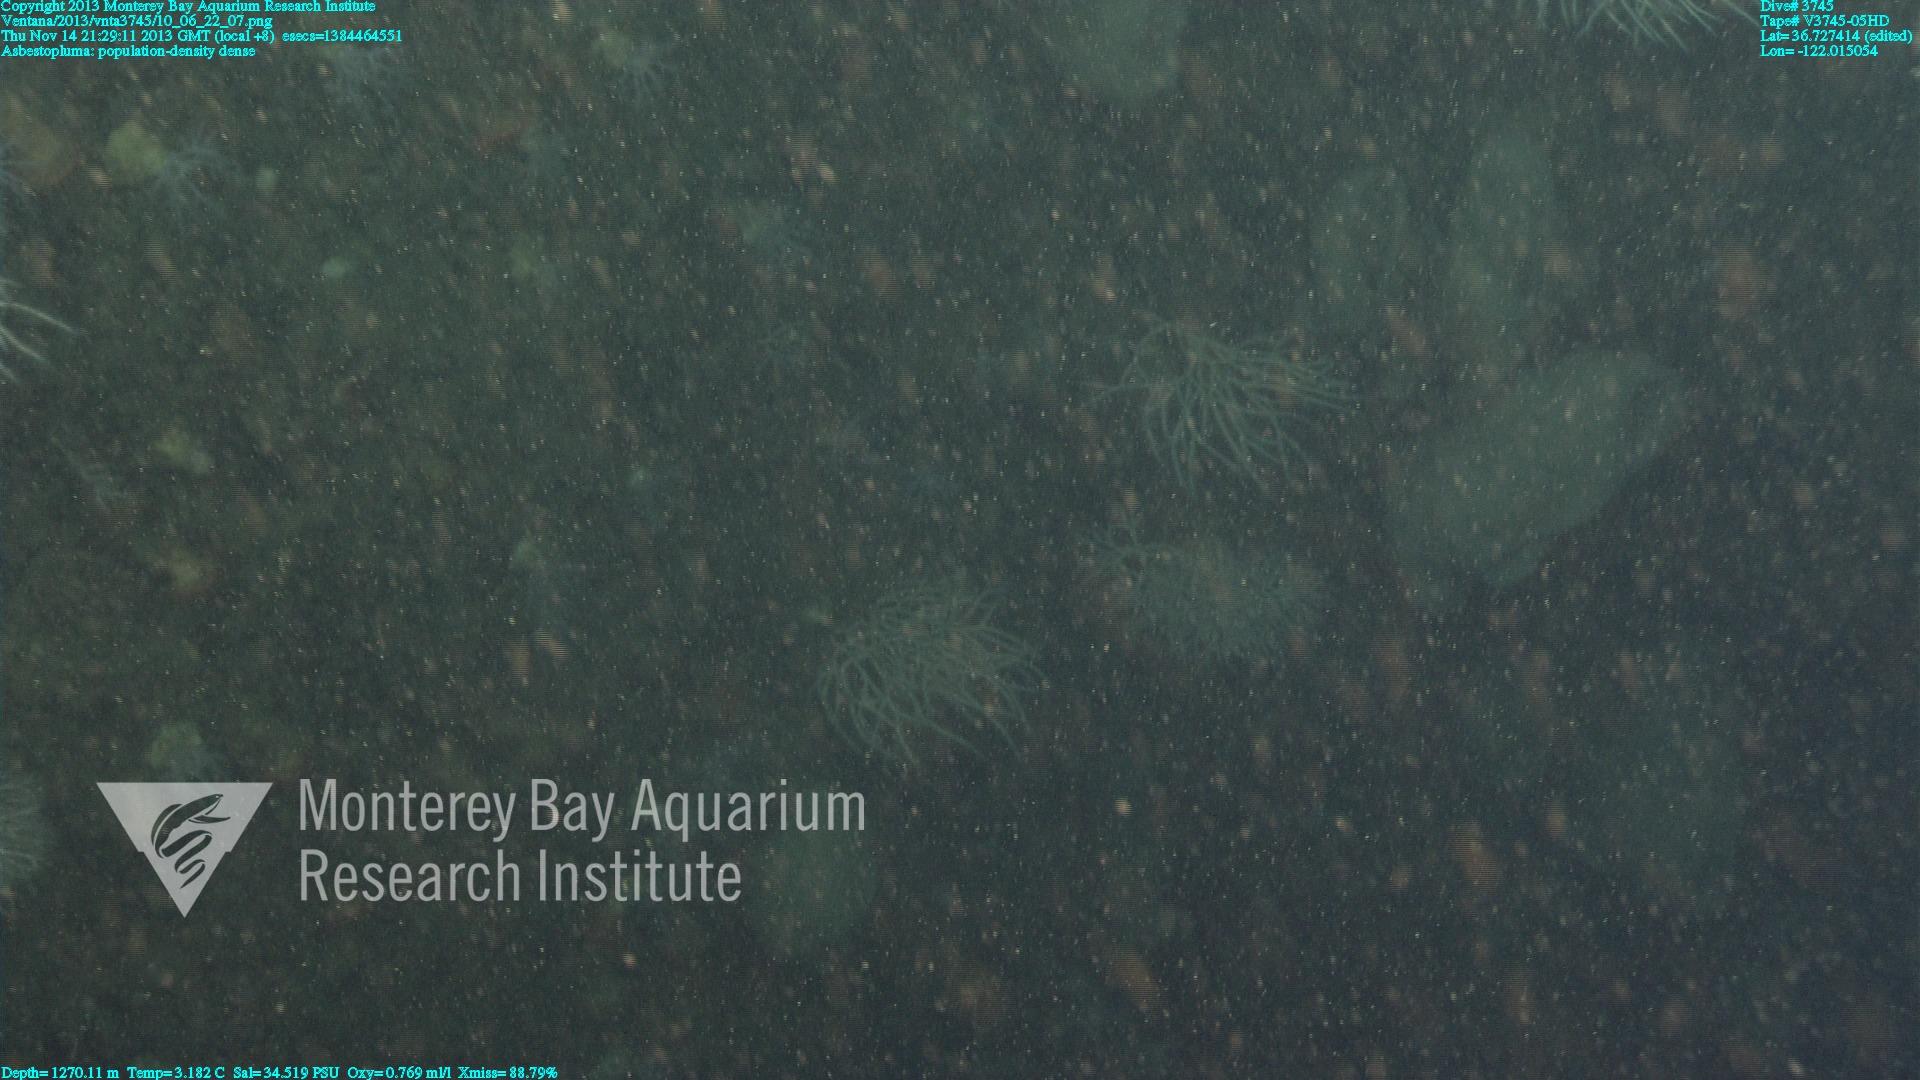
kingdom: Animalia
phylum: Porifera
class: Demospongiae
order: Poecilosclerida
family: Cladorhizidae
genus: Asbestopluma
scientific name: Asbestopluma
